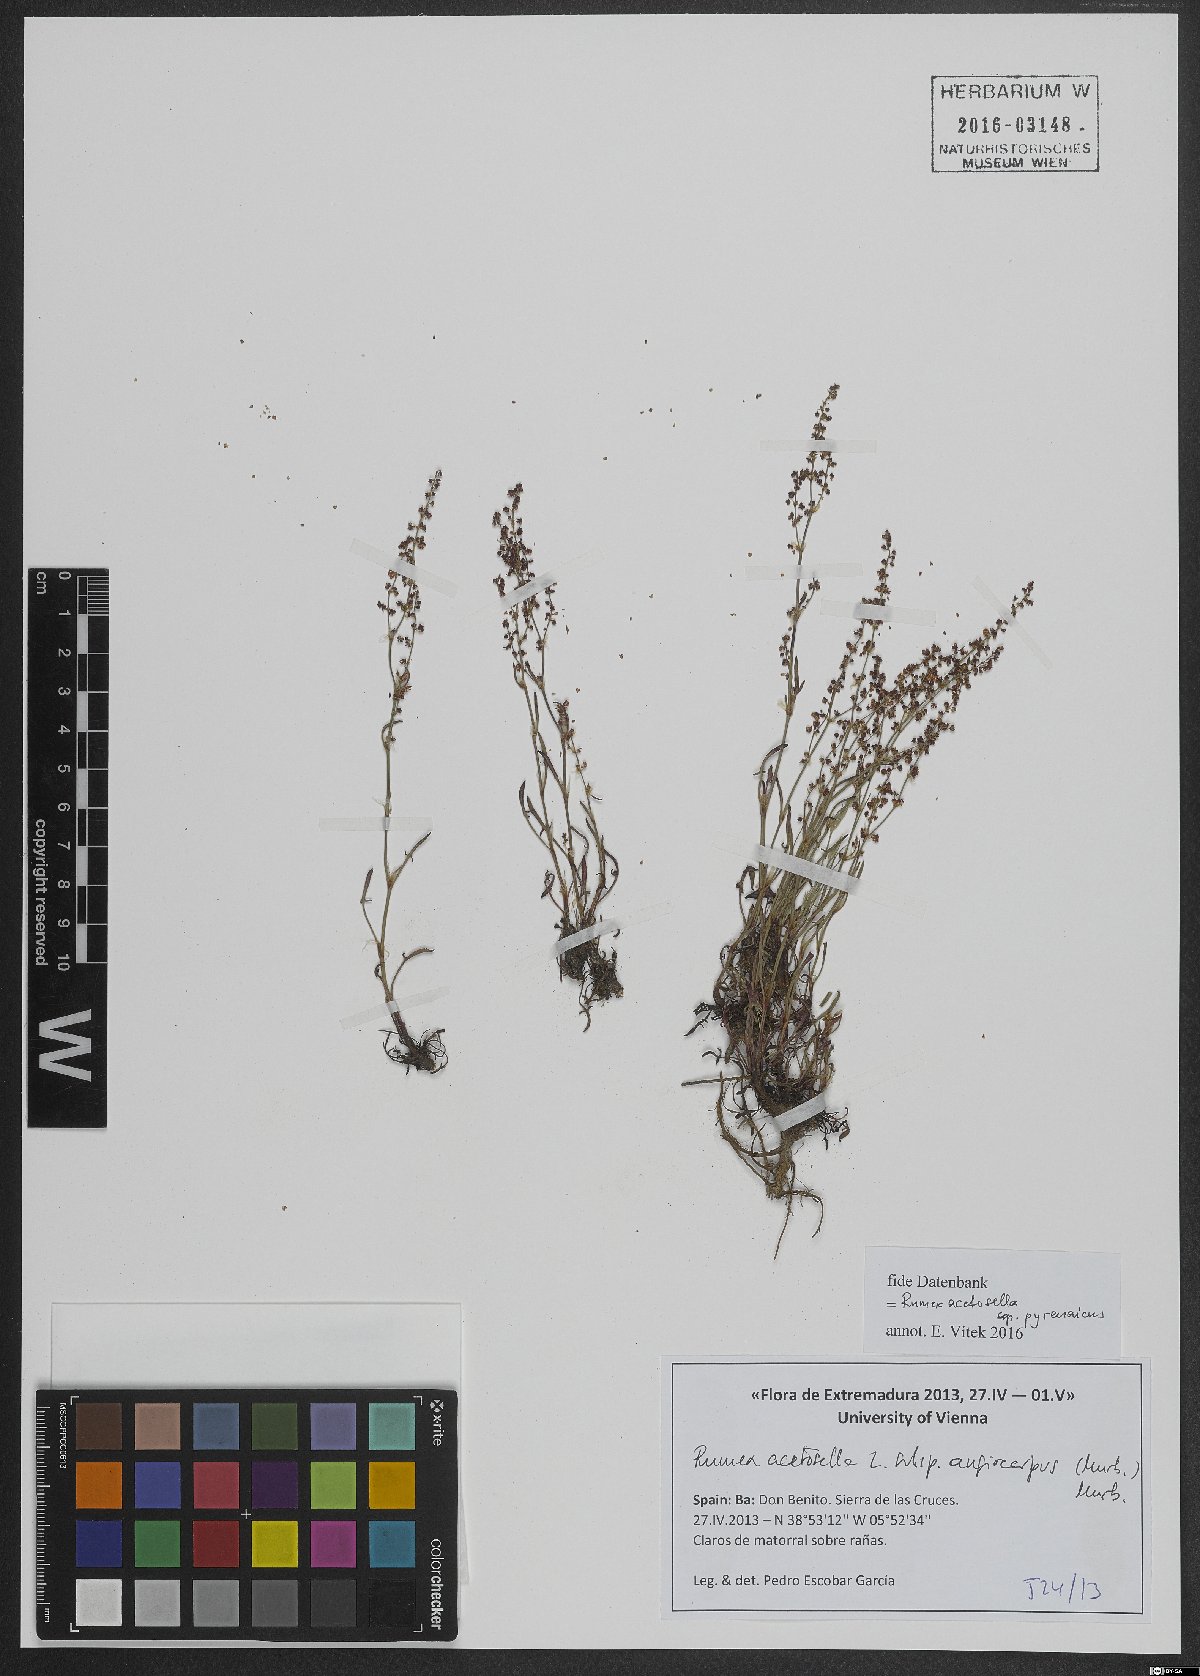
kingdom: Plantae
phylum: Tracheophyta
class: Magnoliopsida
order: Caryophyllales
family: Polygonaceae
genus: Rumex
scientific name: Rumex acetosella
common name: Common sheep sorrel
